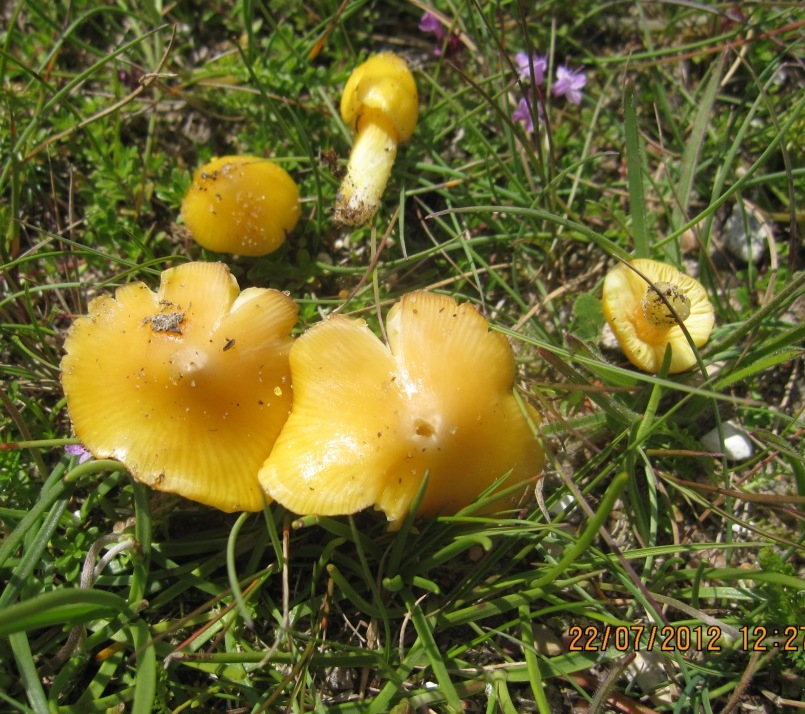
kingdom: Fungi
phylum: Basidiomycota
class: Agaricomycetes
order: Agaricales
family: Hygrophoraceae
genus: Hygrocybe
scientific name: Hygrocybe acutoconica
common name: spidspuklet vokshat
